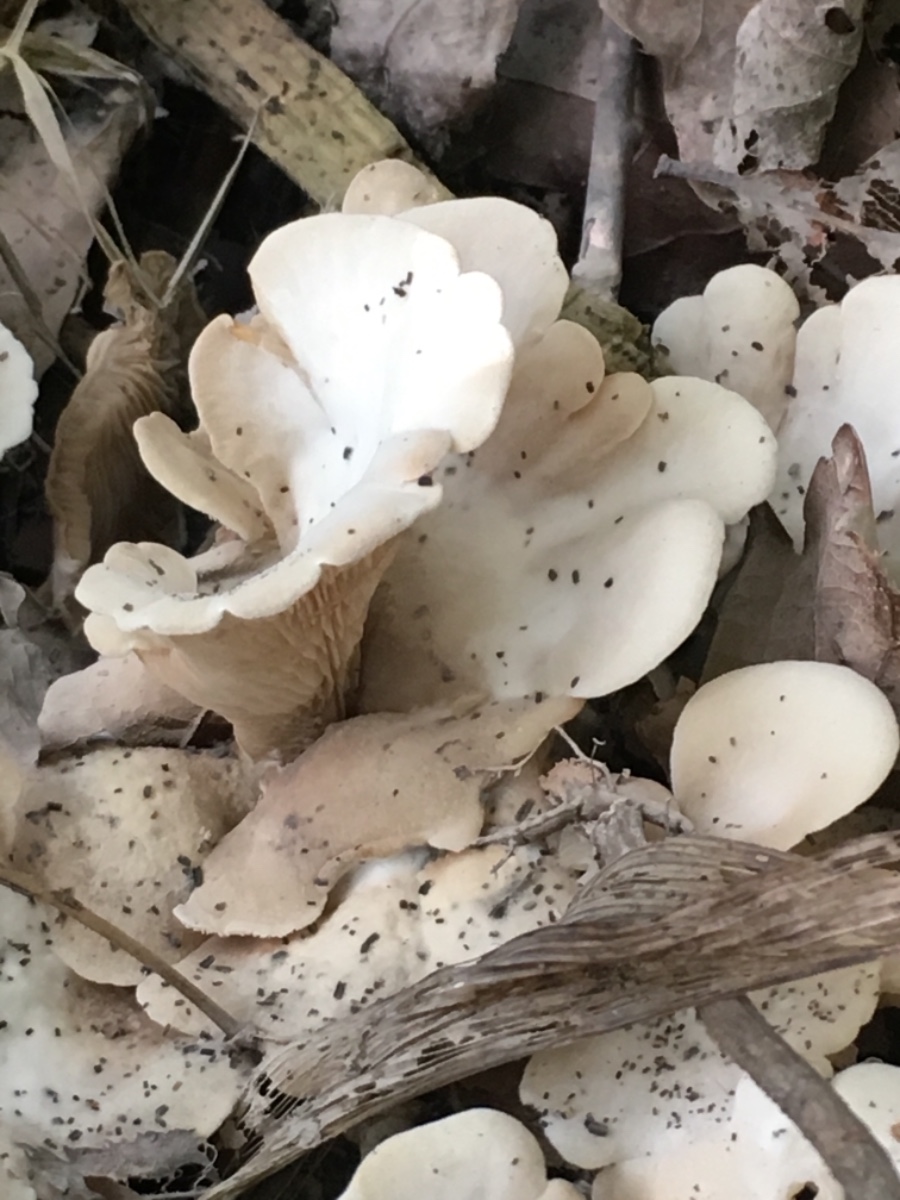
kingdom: Fungi
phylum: Basidiomycota
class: Agaricomycetes
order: Agaricales
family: Entolomataceae
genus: Clitopilus
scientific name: Clitopilus passeckerianus
